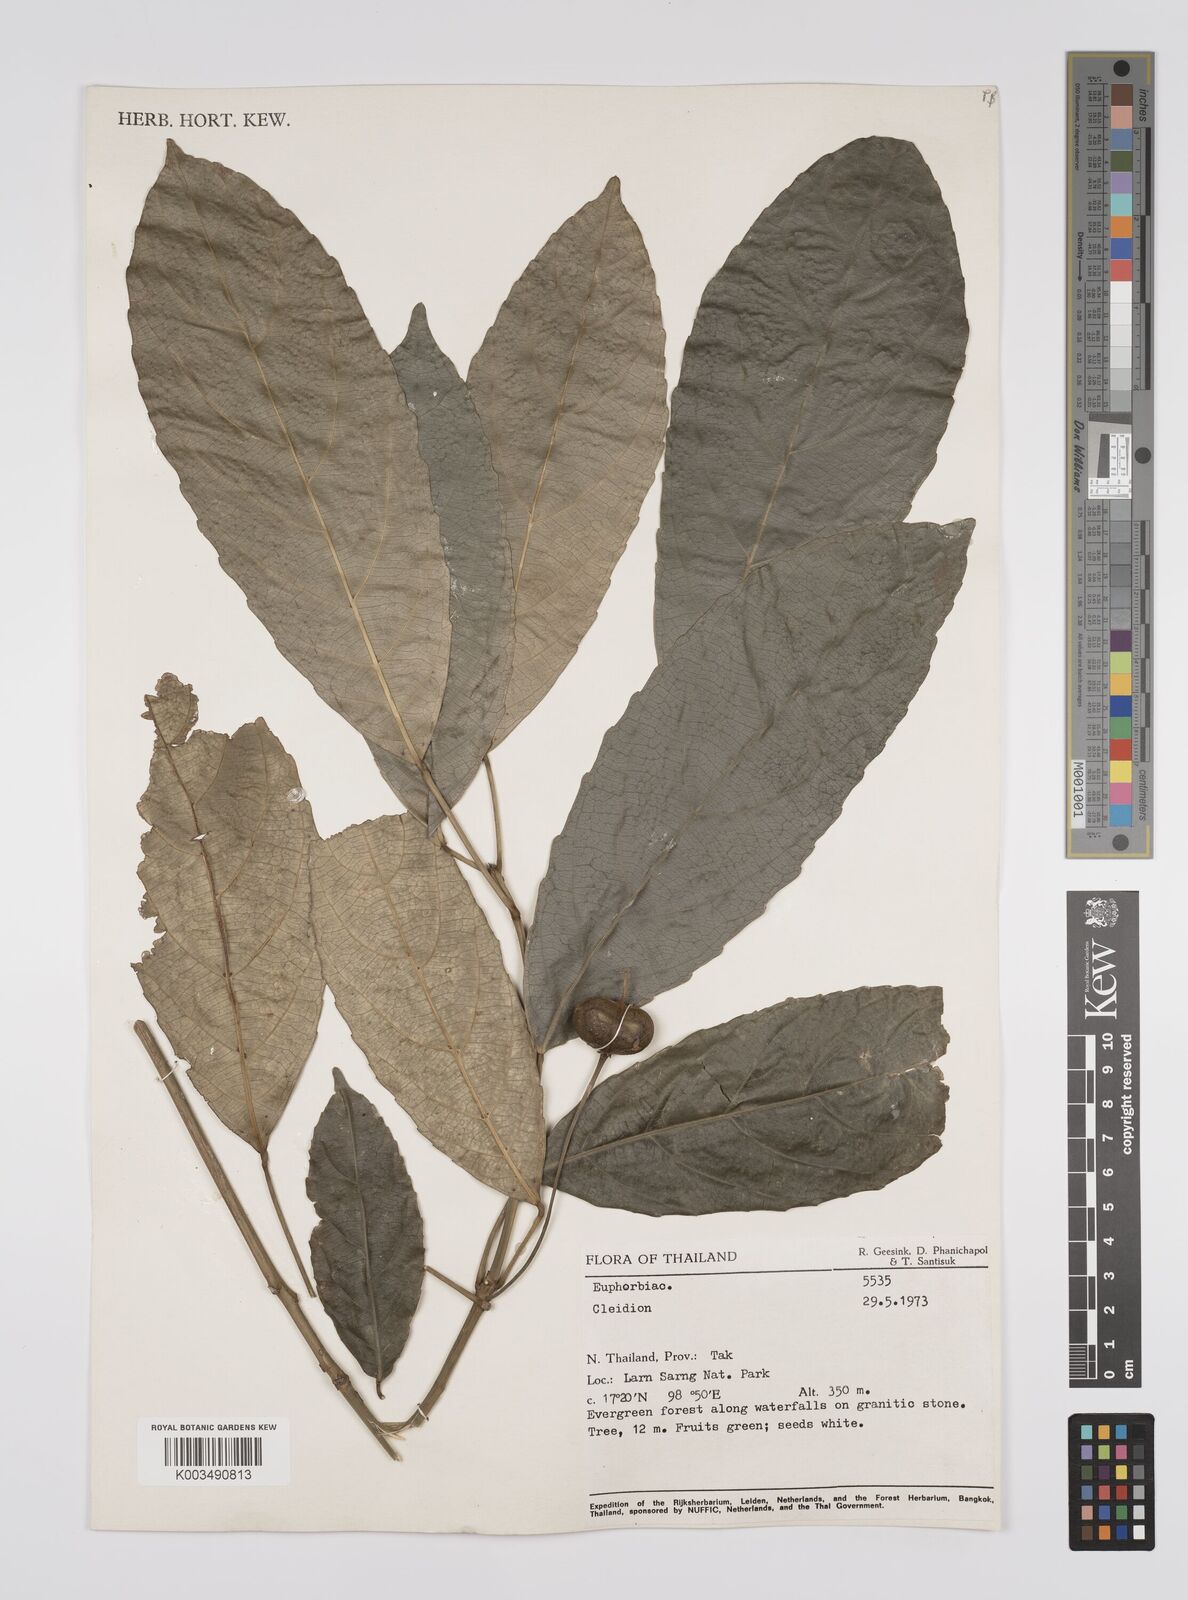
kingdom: Plantae
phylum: Tracheophyta
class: Magnoliopsida
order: Malpighiales
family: Euphorbiaceae
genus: Acalypha
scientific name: Acalypha spiciflora
